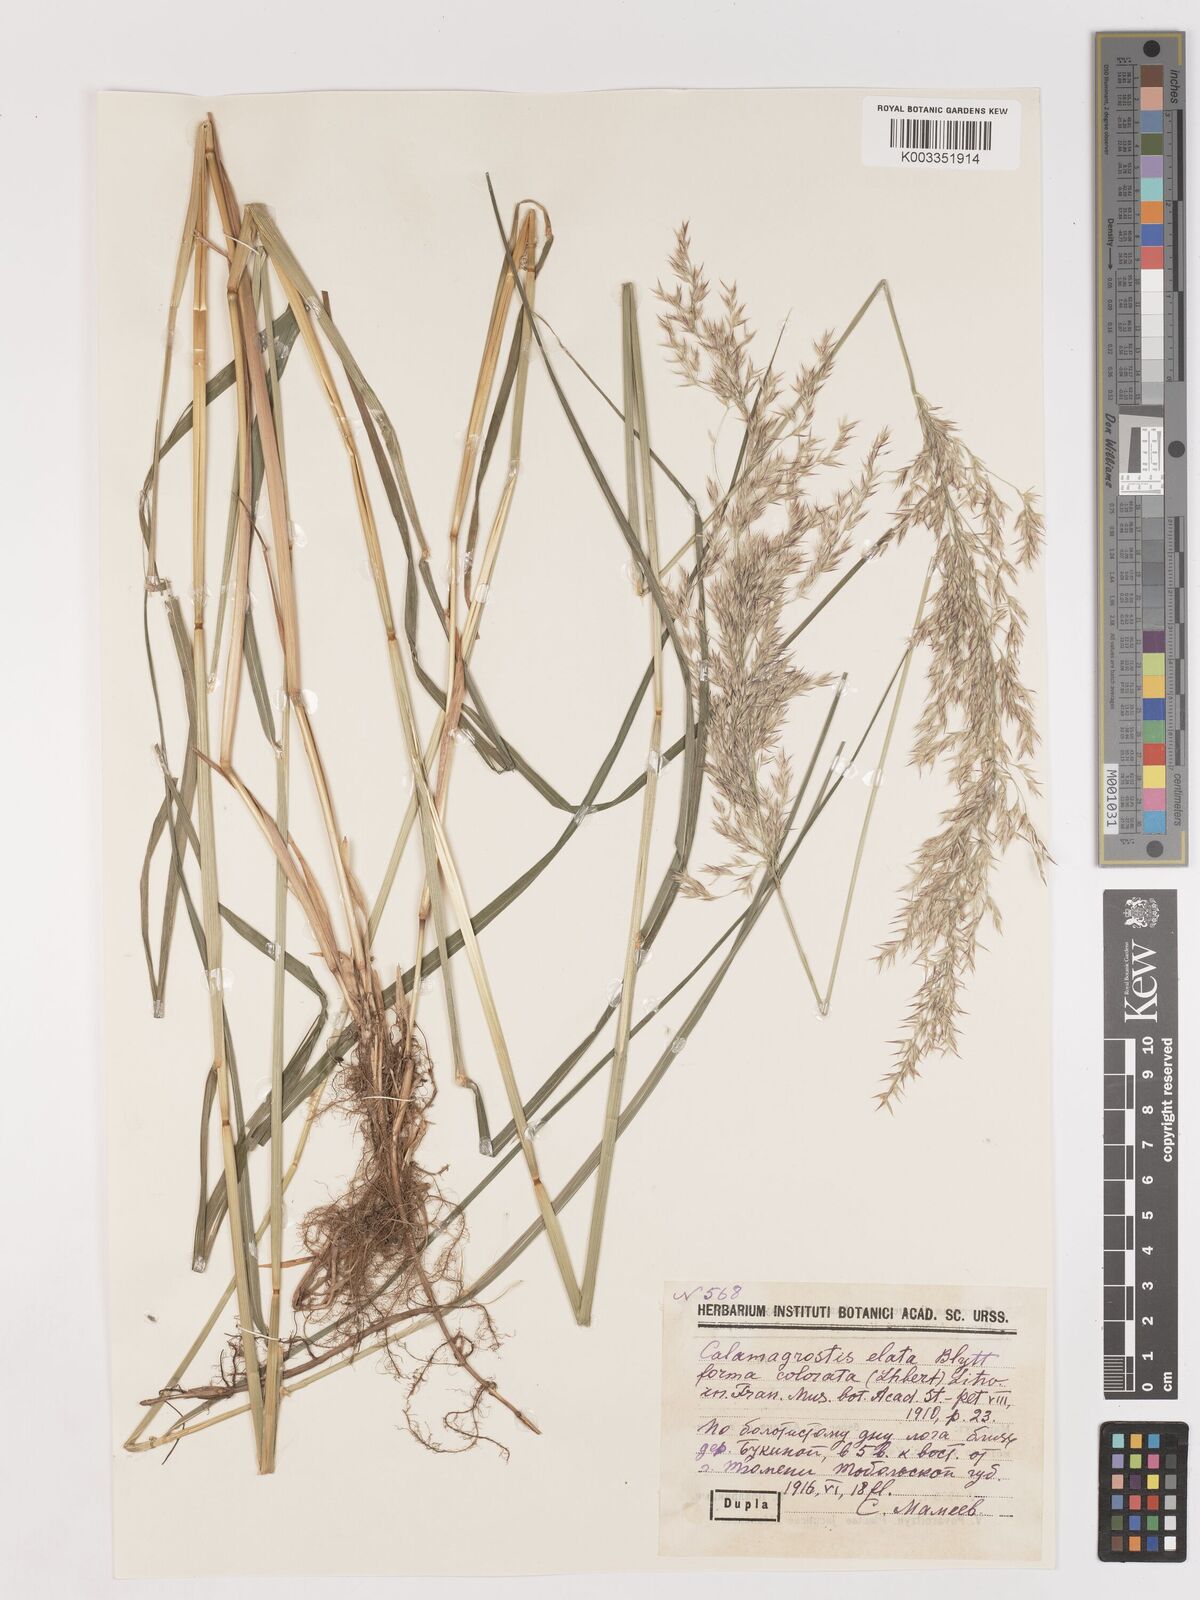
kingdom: Plantae
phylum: Tracheophyta
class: Liliopsida
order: Poales
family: Poaceae
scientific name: Poaceae
